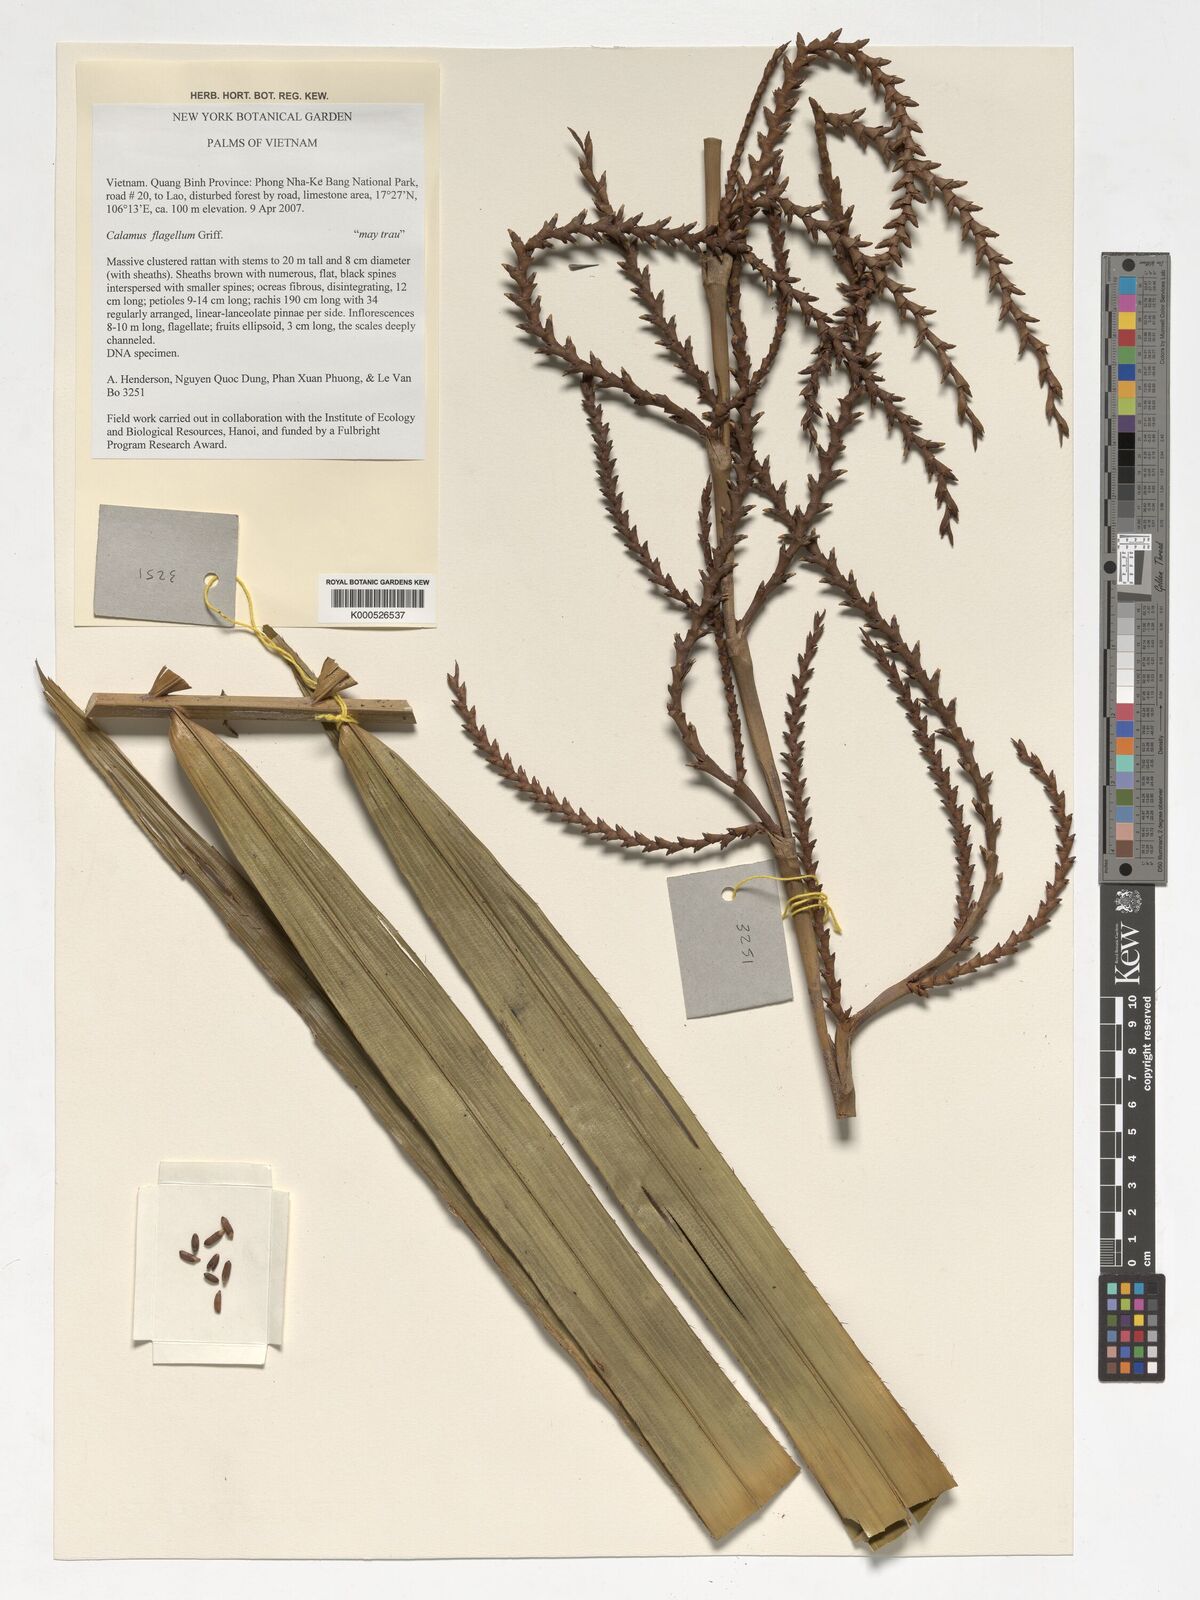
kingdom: Plantae
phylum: Tracheophyta
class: Liliopsida
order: Arecales
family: Arecaceae
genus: Calamus
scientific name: Calamus
